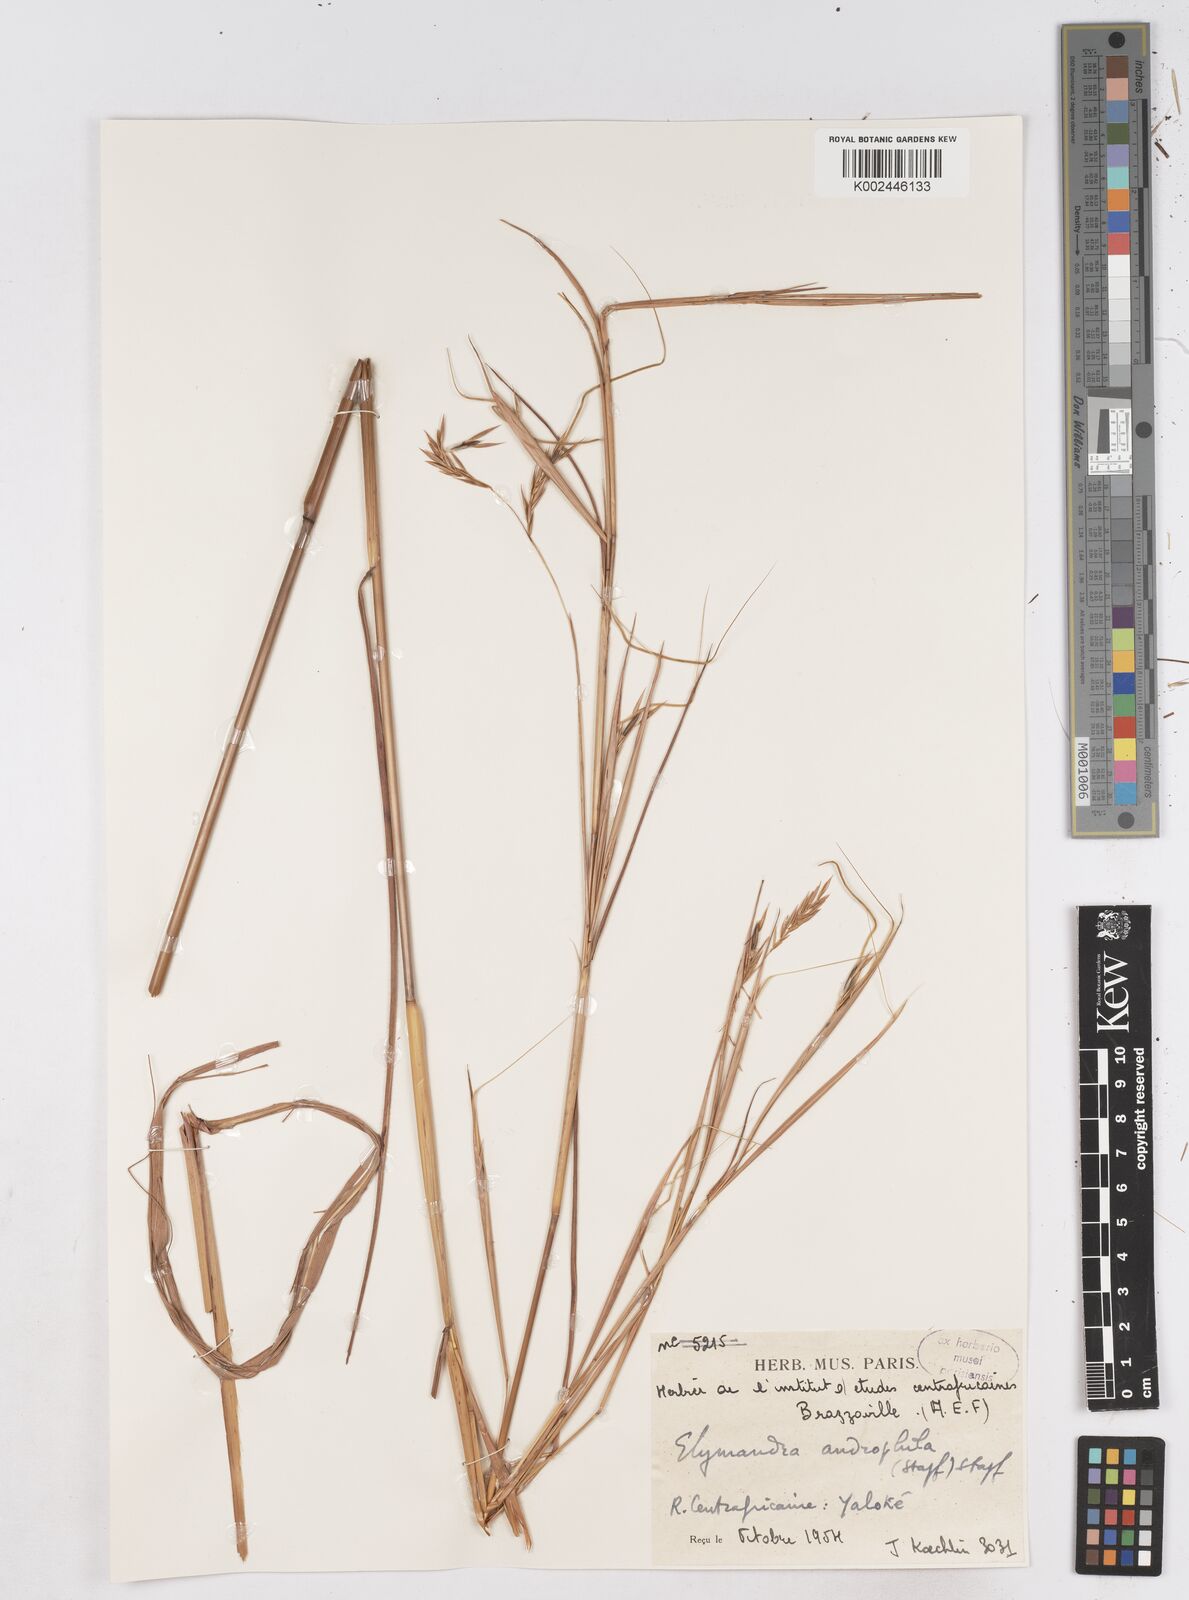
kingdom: Plantae
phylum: Tracheophyta
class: Liliopsida
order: Poales
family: Poaceae
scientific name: Poaceae
